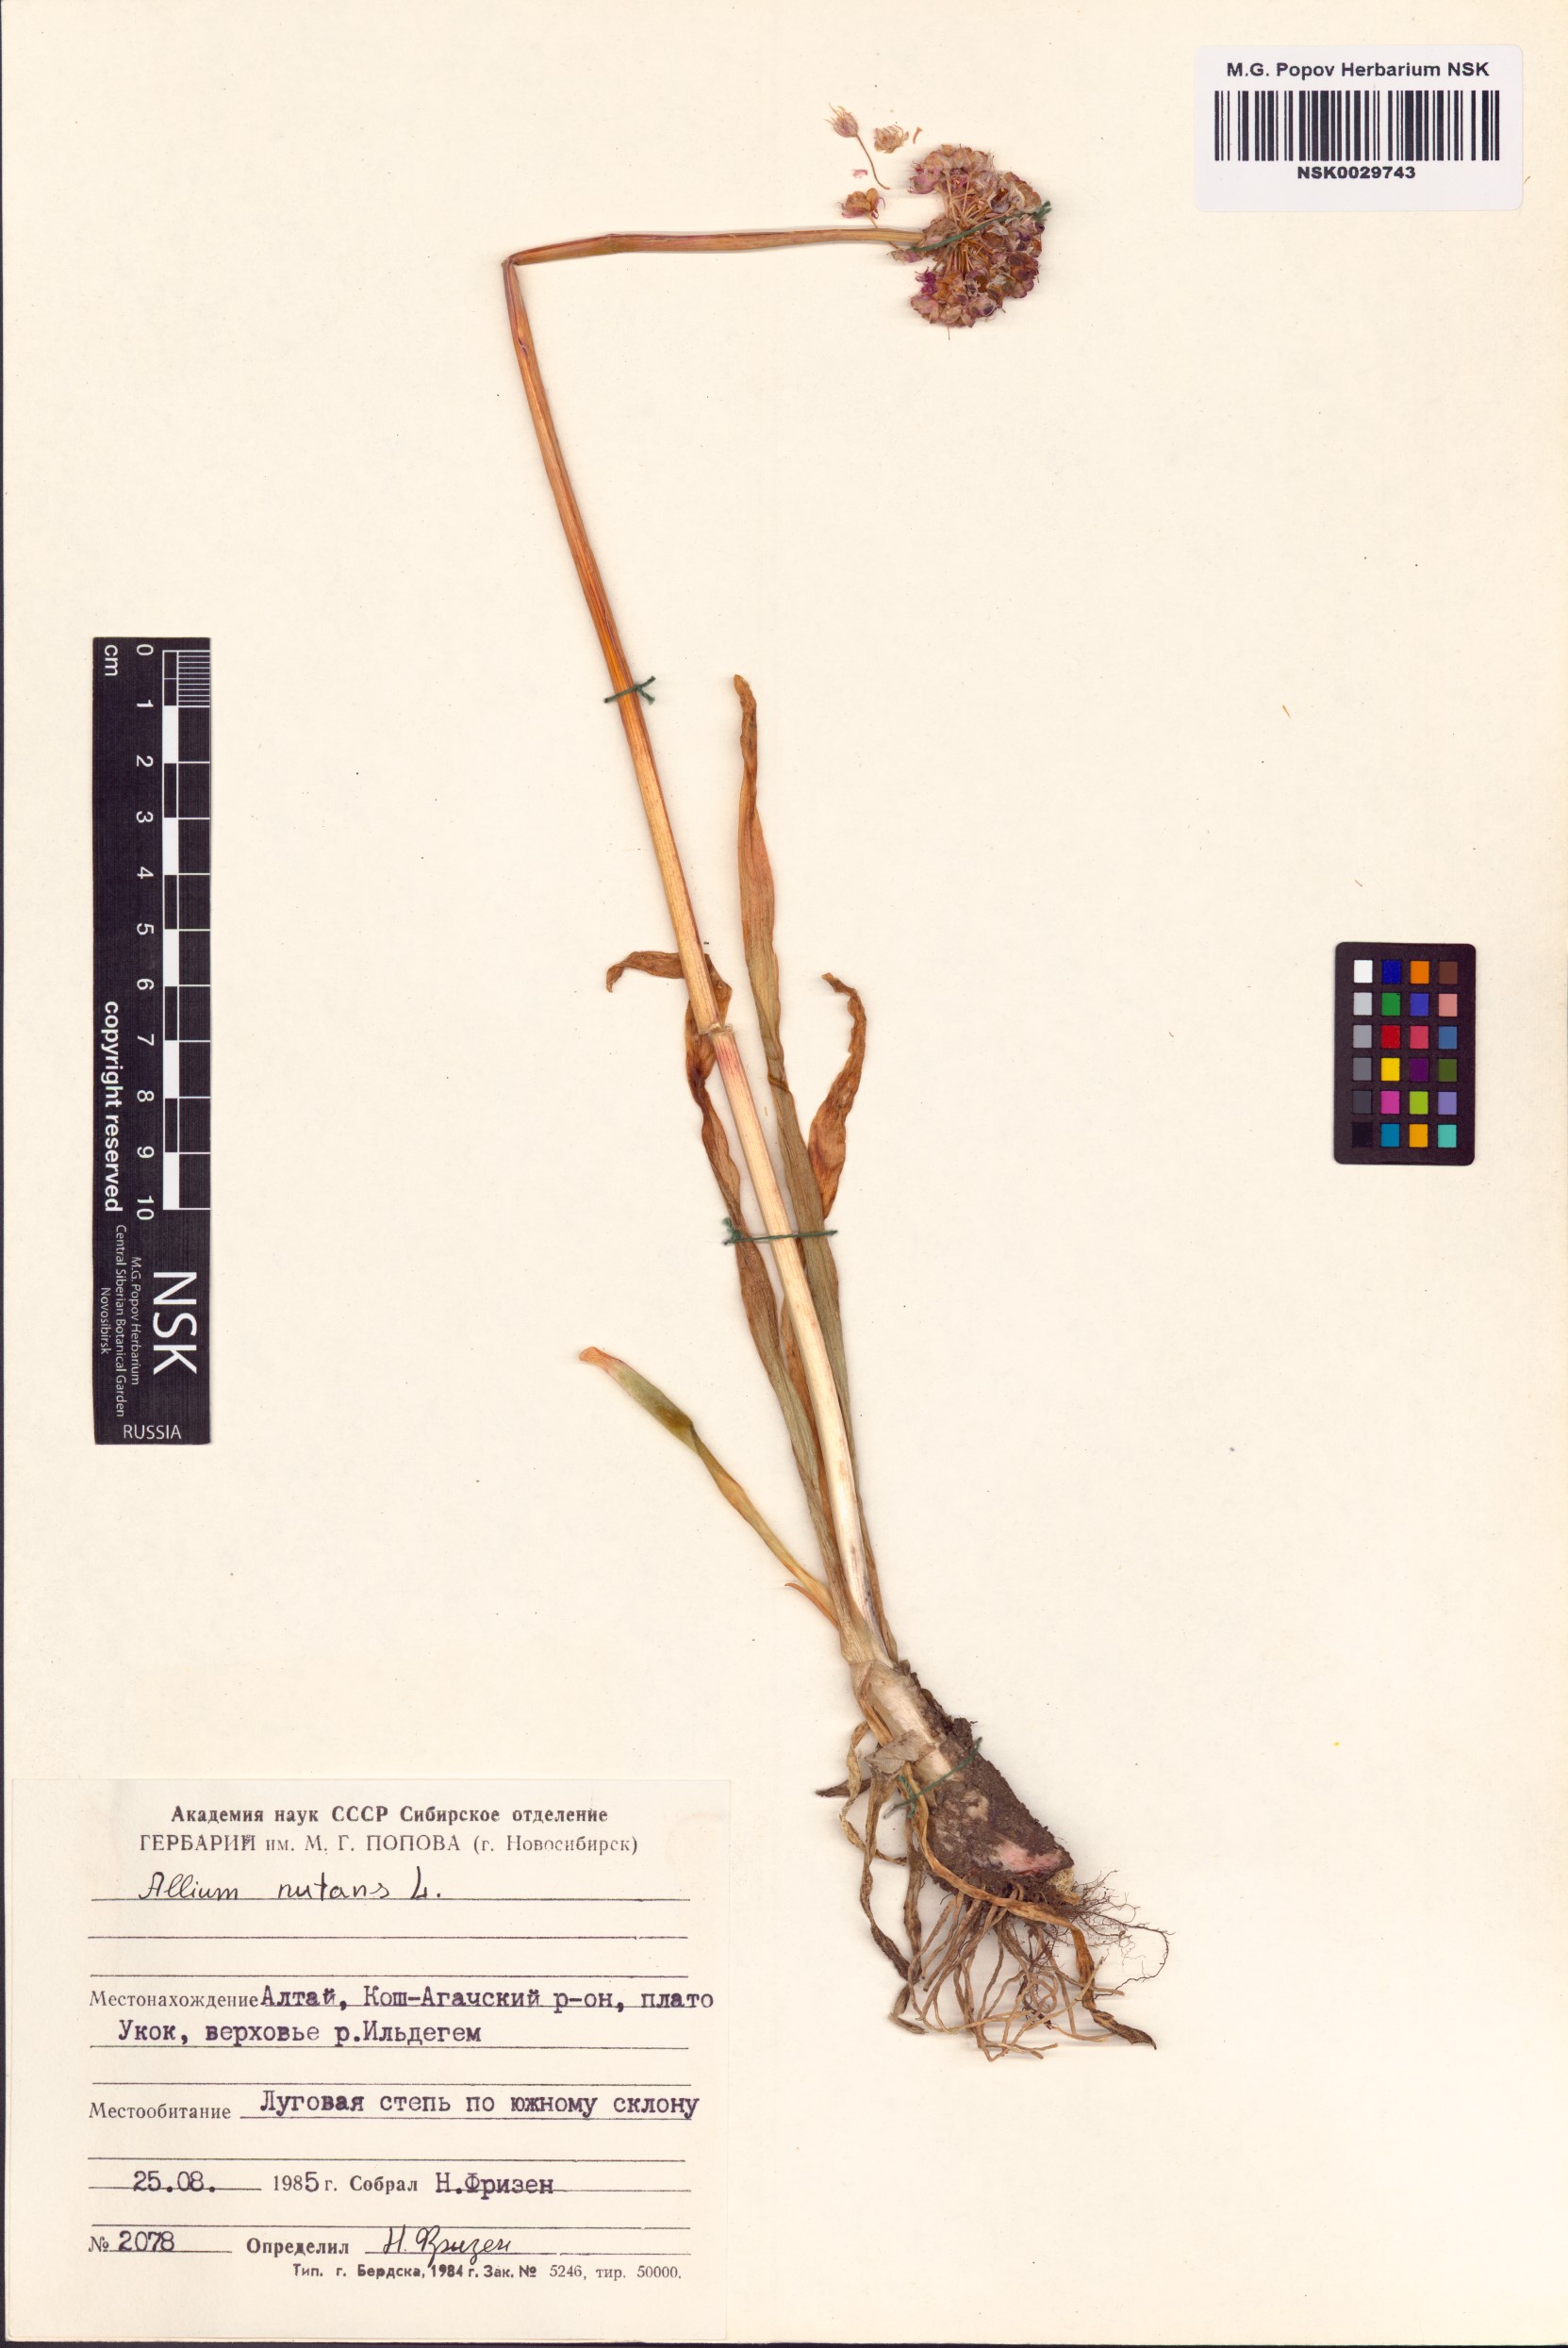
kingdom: Plantae
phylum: Tracheophyta
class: Liliopsida
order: Asparagales
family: Amaryllidaceae
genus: Allium
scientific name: Allium nutans
